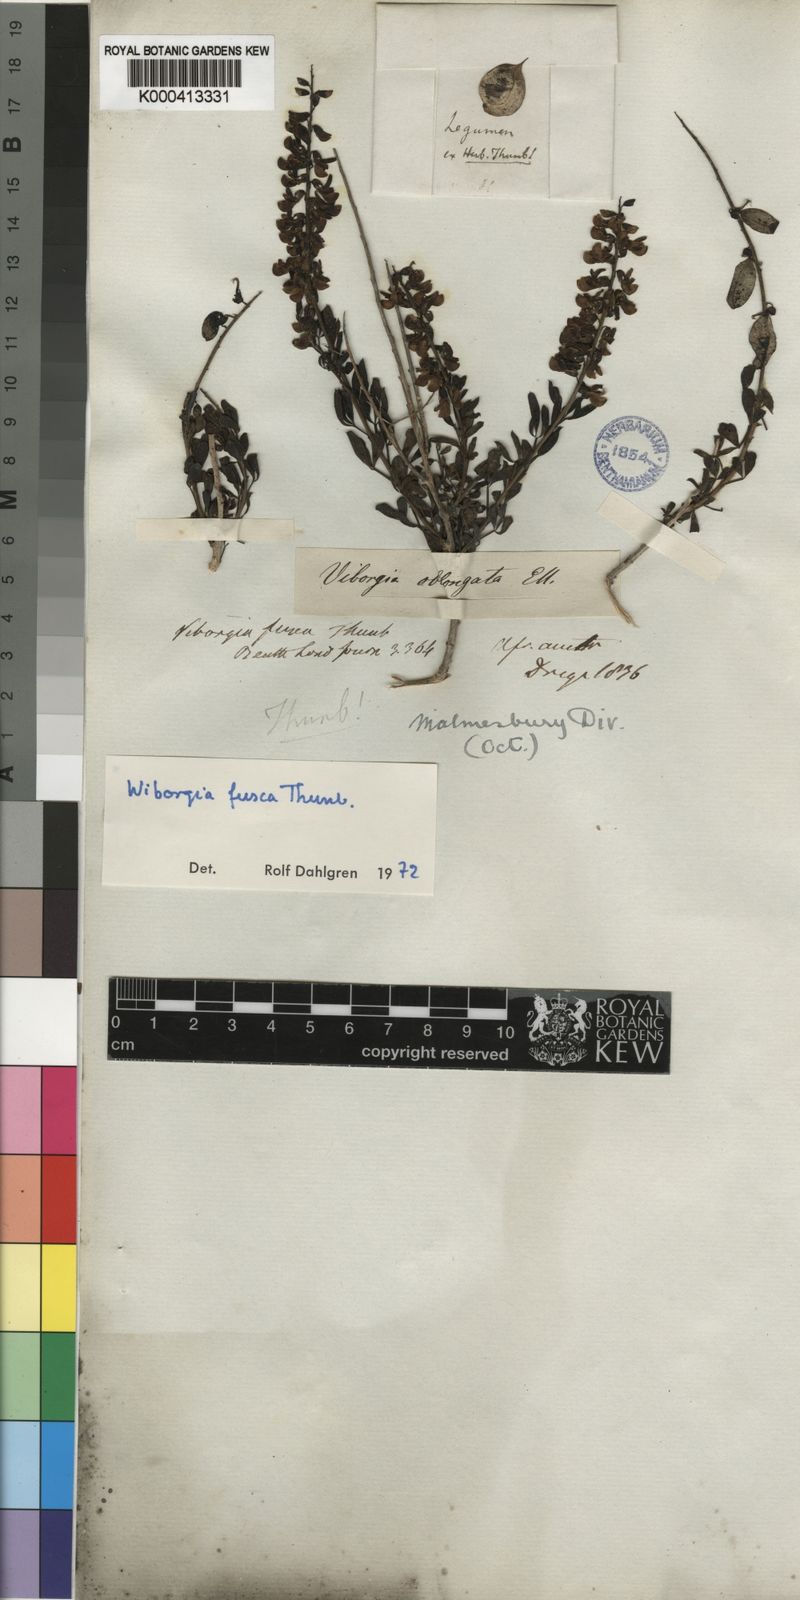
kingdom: Plantae
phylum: Tracheophyta
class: Magnoliopsida
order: Fabales
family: Fabaceae
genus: Wiborgia
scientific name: Wiborgia fusca
